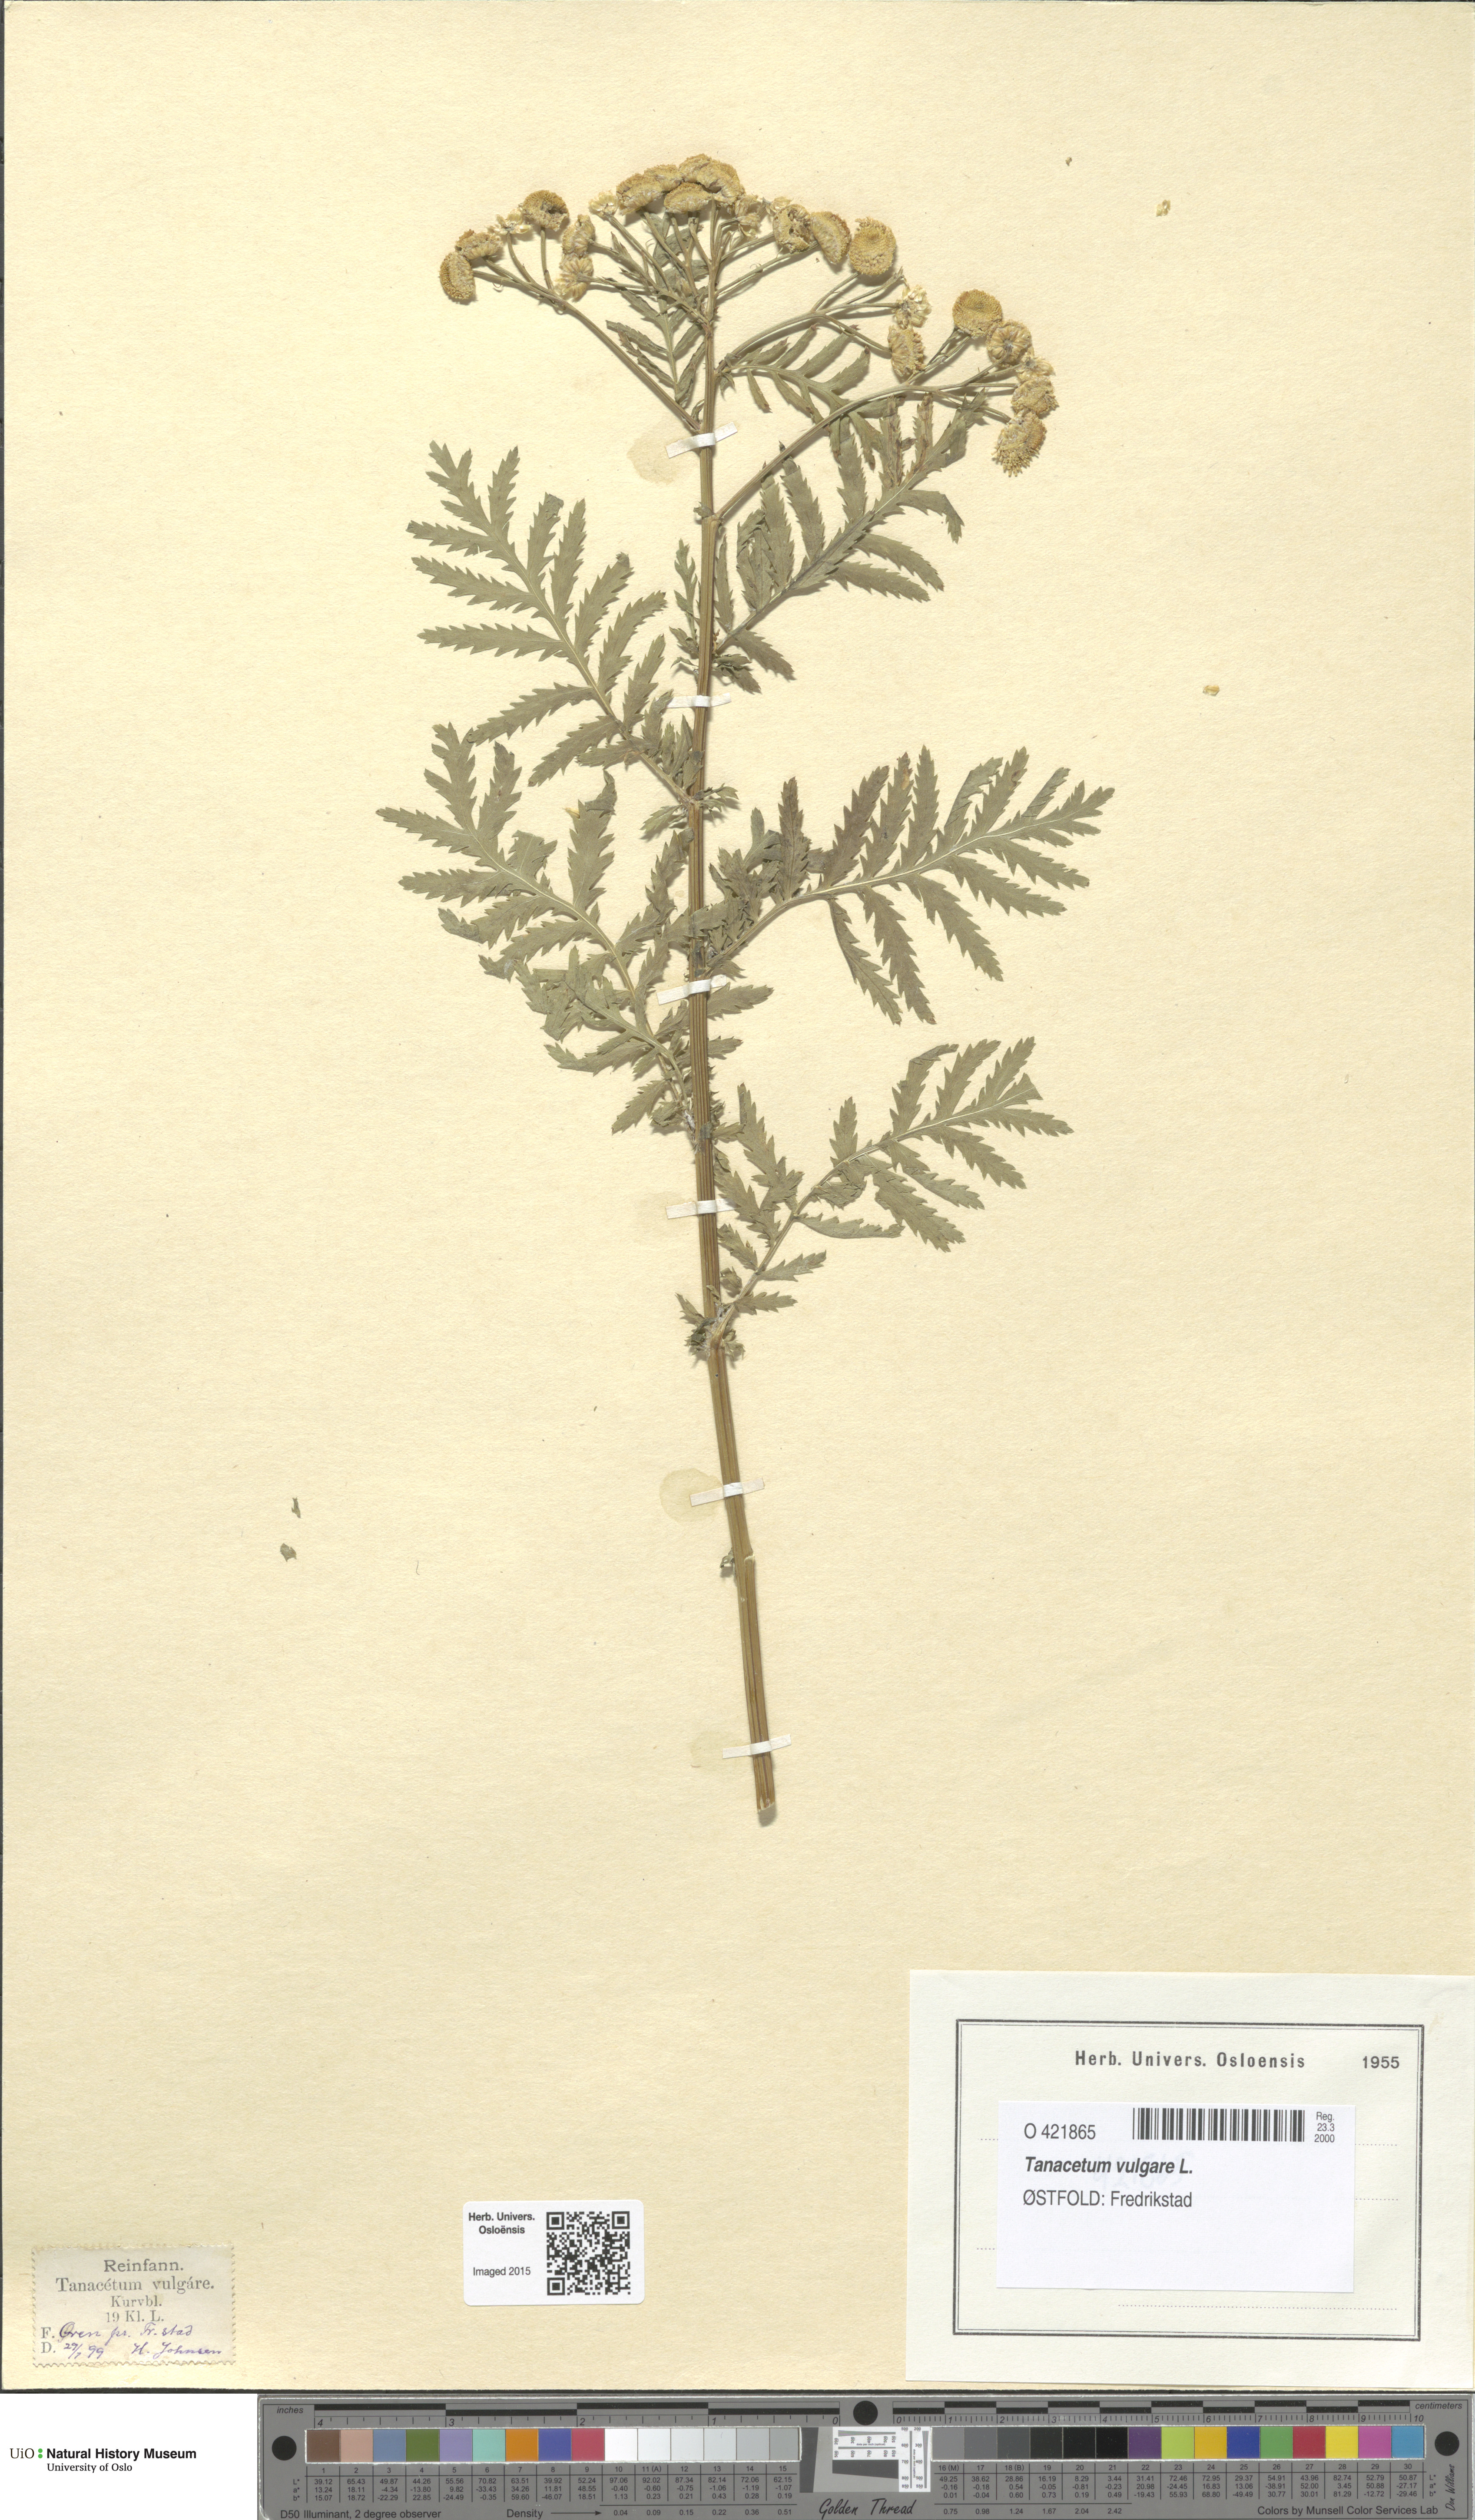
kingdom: Plantae
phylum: Tracheophyta
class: Magnoliopsida
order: Asterales
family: Asteraceae
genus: Tanacetum
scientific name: Tanacetum vulgare
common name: Common tansy
